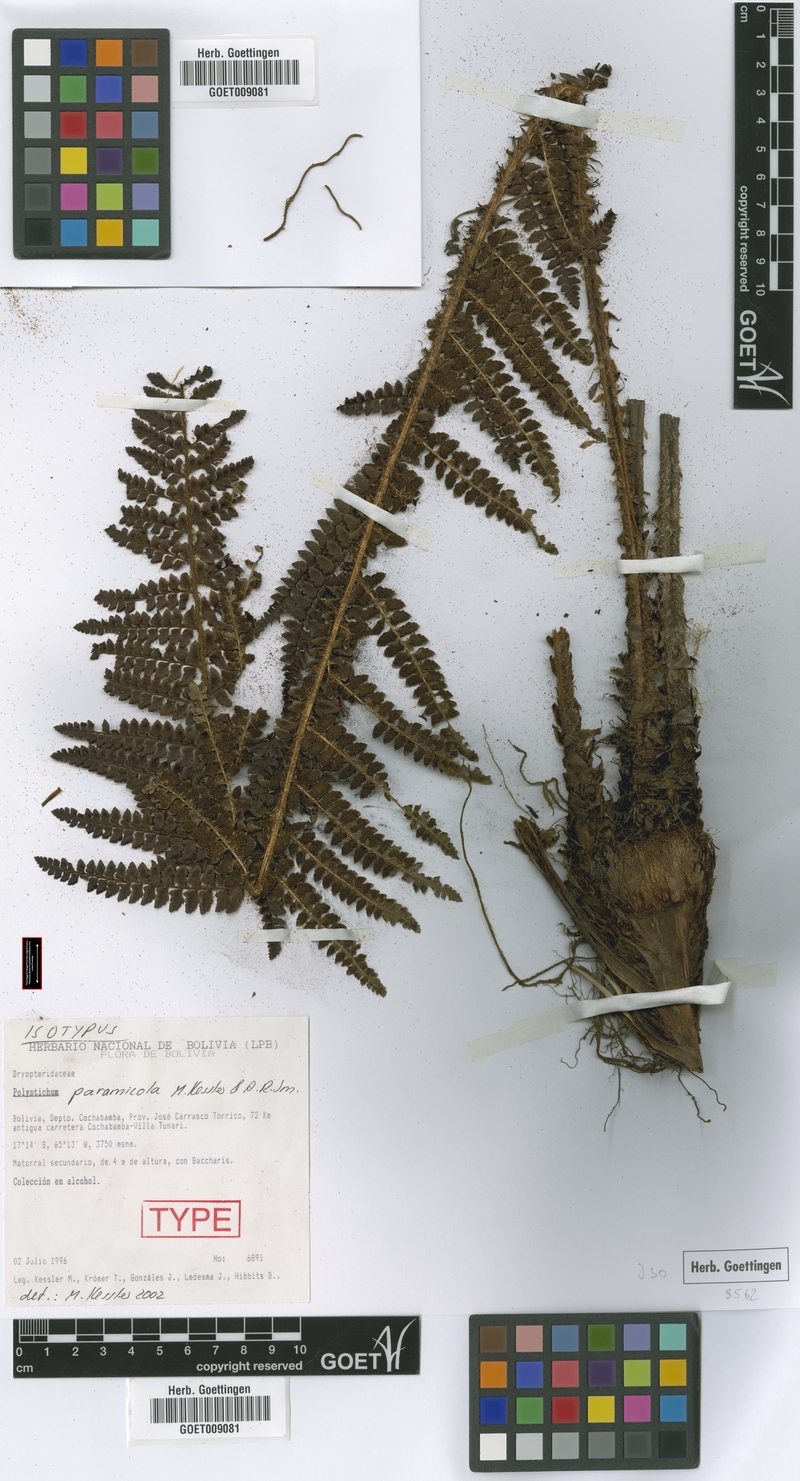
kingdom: Plantae
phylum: Tracheophyta
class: Polypodiopsida
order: Polypodiales
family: Dryopteridaceae
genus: Polystichum
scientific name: Polystichum paramicola
